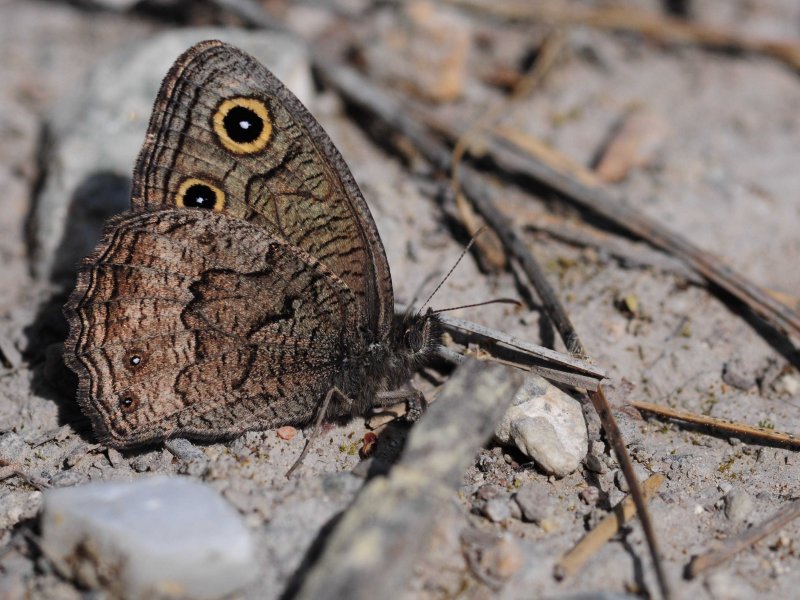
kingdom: Animalia
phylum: Arthropoda
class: Insecta
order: Lepidoptera
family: Nymphalidae
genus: Cercyonis
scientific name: Cercyonis oetus
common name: Small Wood-Nymph
